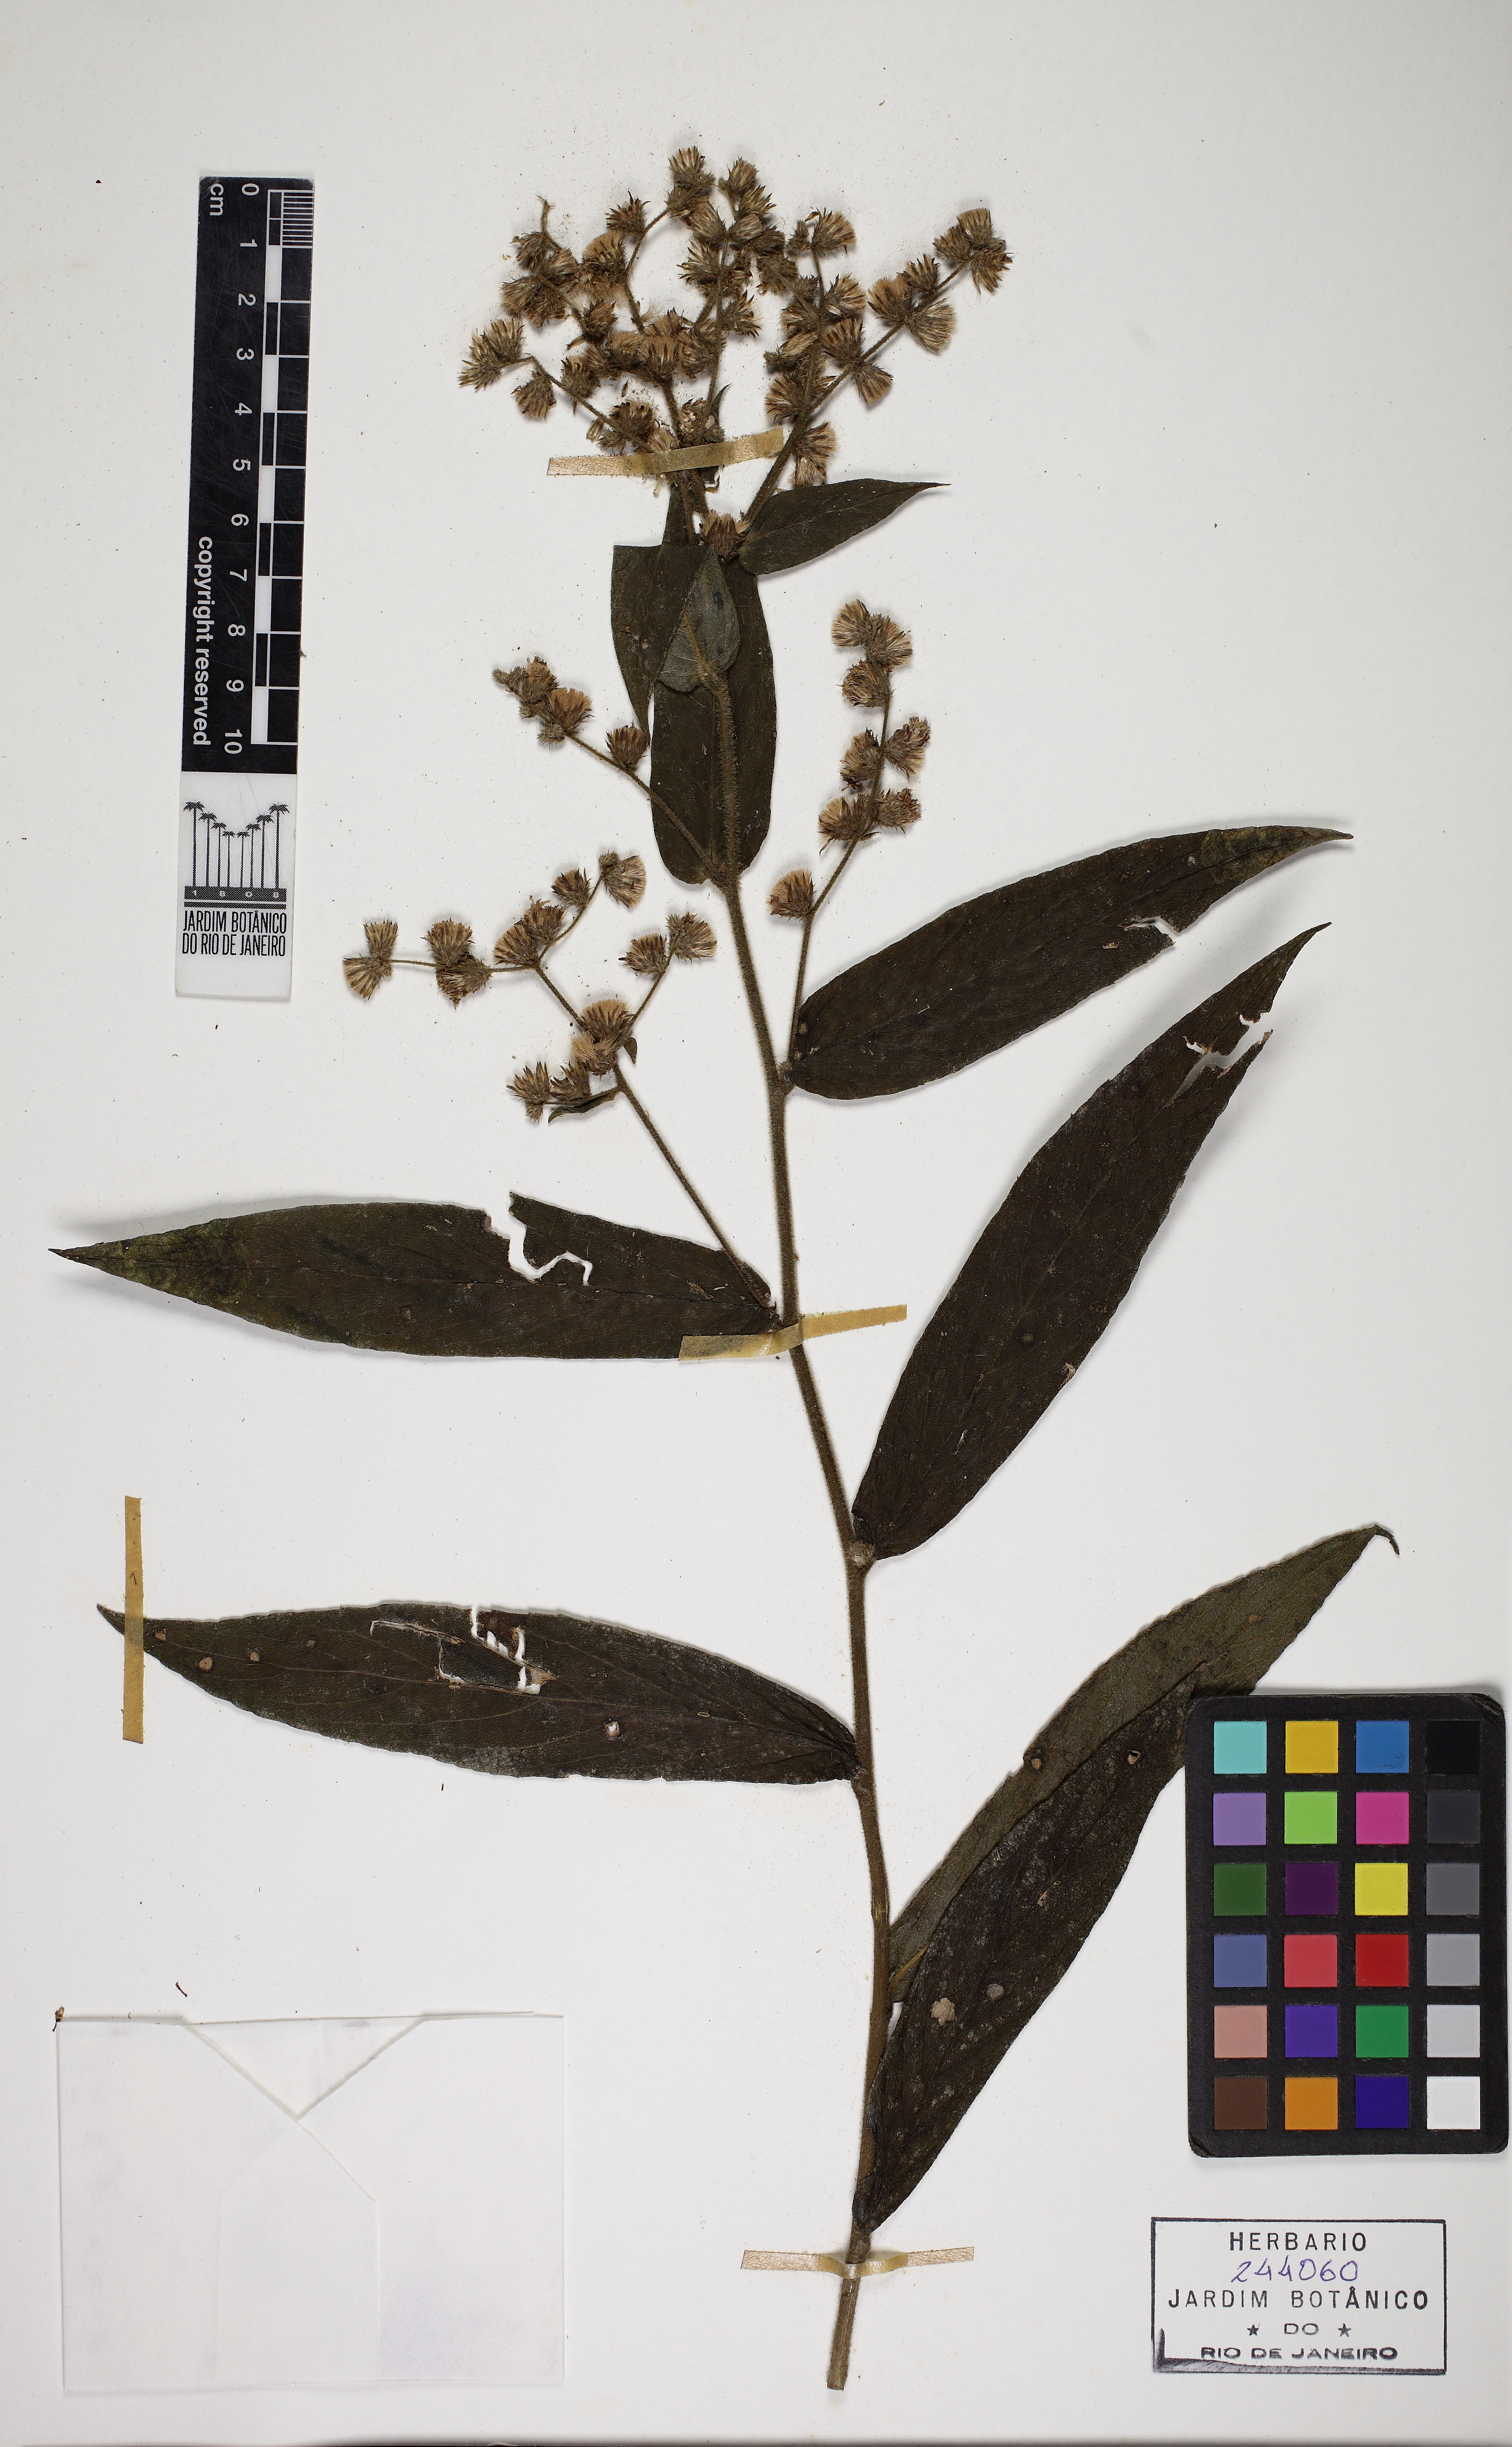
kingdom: Plantae
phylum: Tracheophyta
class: Magnoliopsida
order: Asterales
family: Asteraceae
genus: Lepidaploa
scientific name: Lepidaploa
